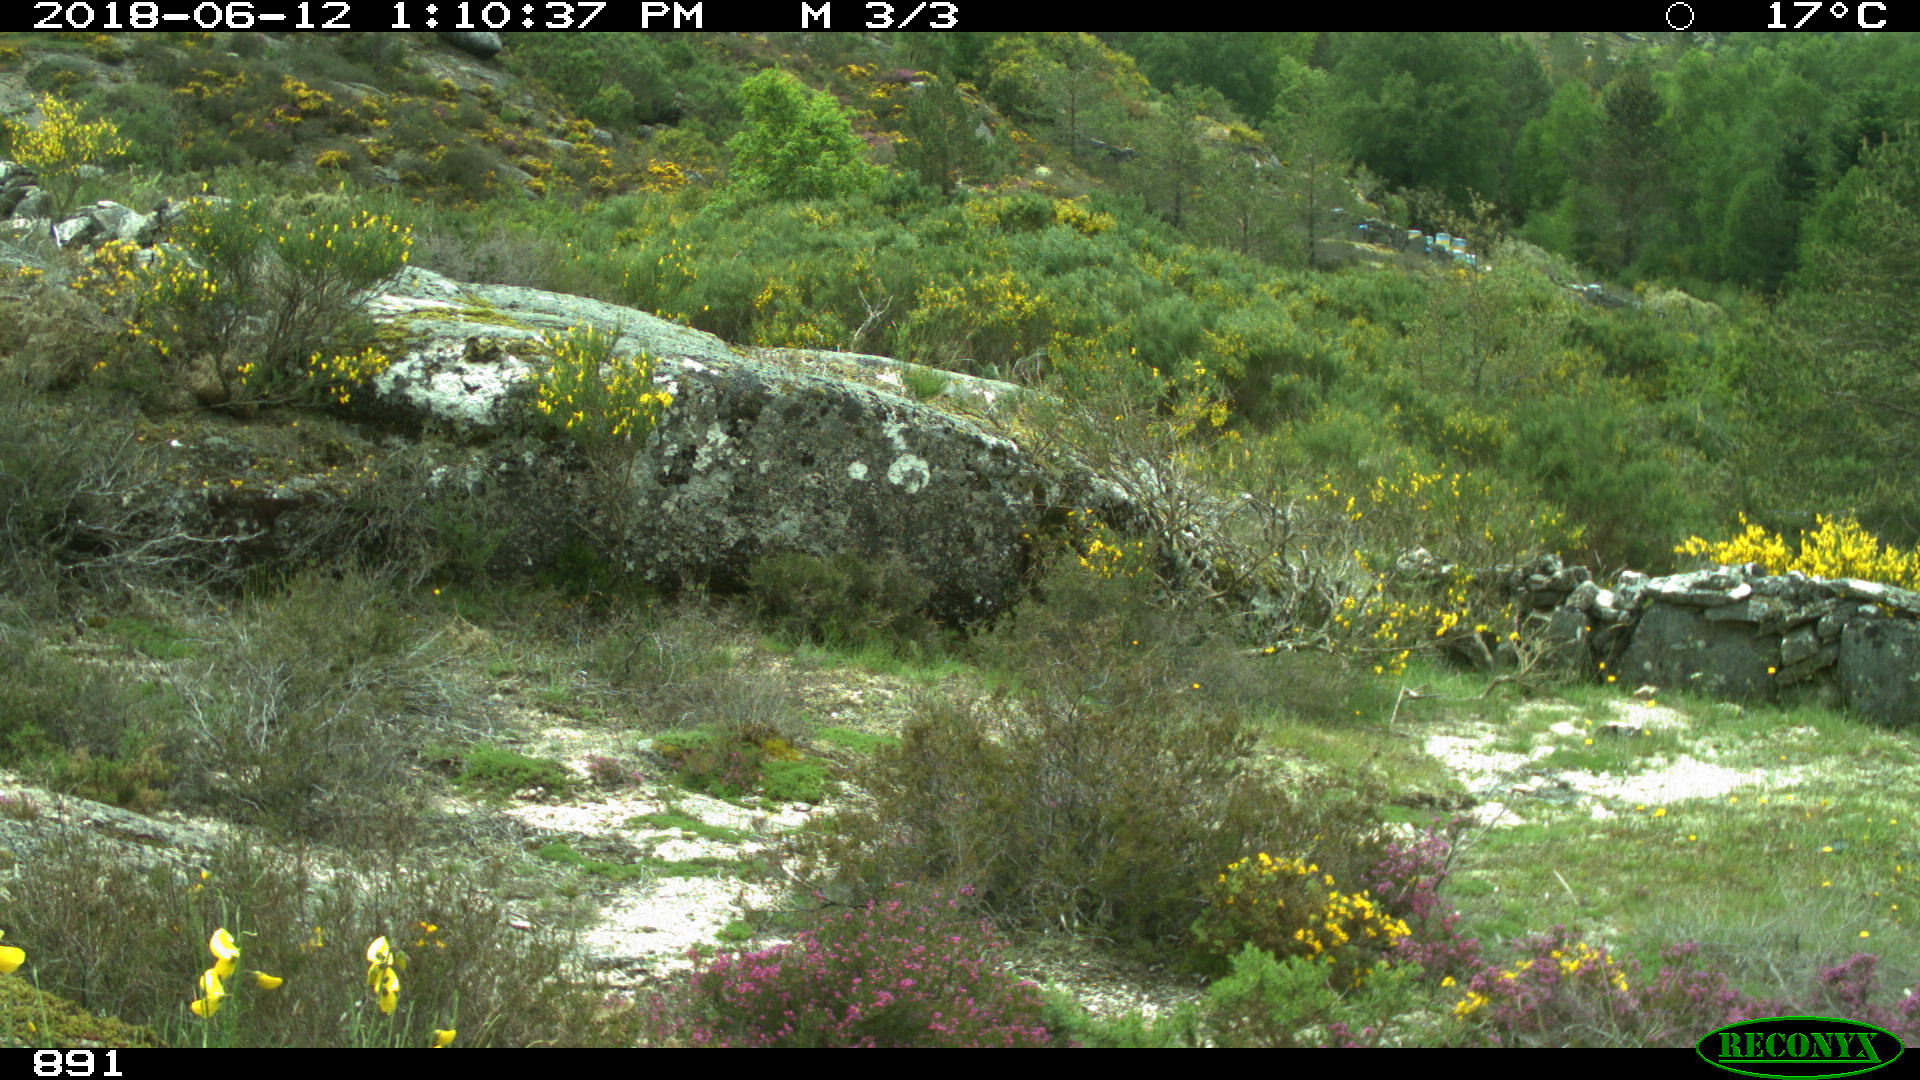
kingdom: Animalia
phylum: Chordata
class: Mammalia
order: Artiodactyla
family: Bovidae
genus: Capra
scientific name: Capra hircus
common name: Domestic goat
